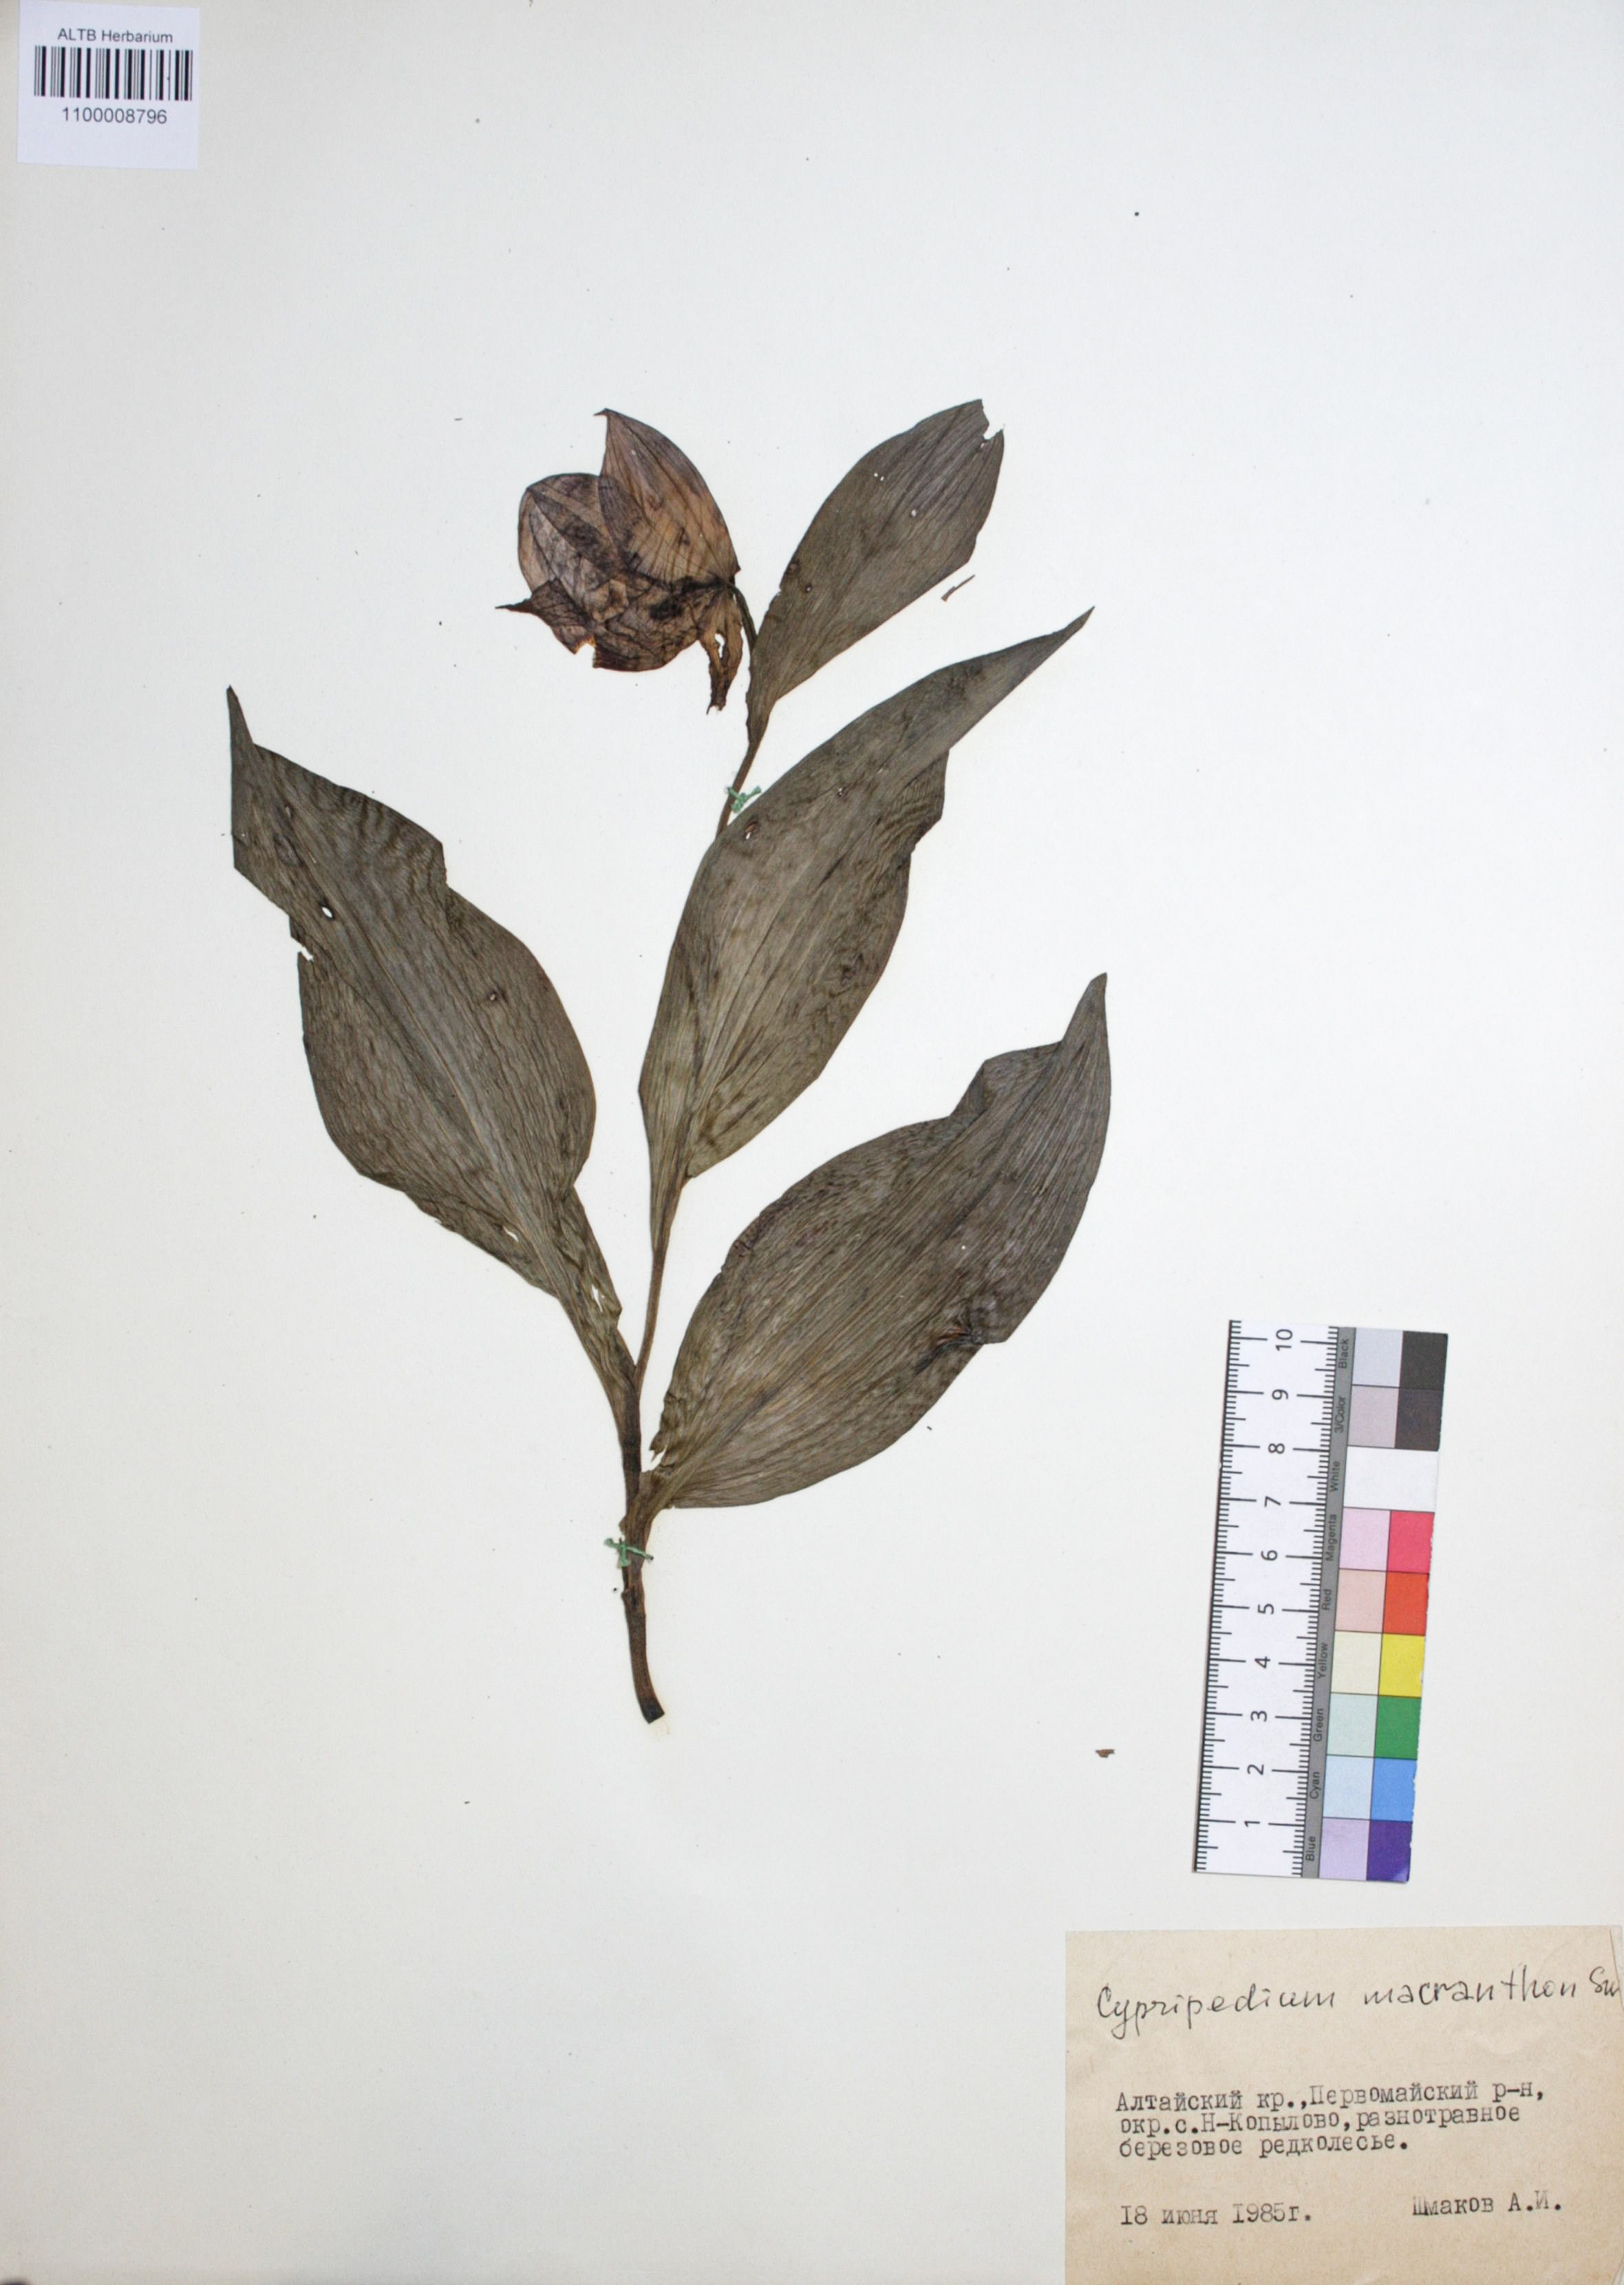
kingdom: Plantae
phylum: Tracheophyta
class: Liliopsida
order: Asparagales
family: Orchidaceae
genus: Cypripedium
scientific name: Cypripedium macranthon
